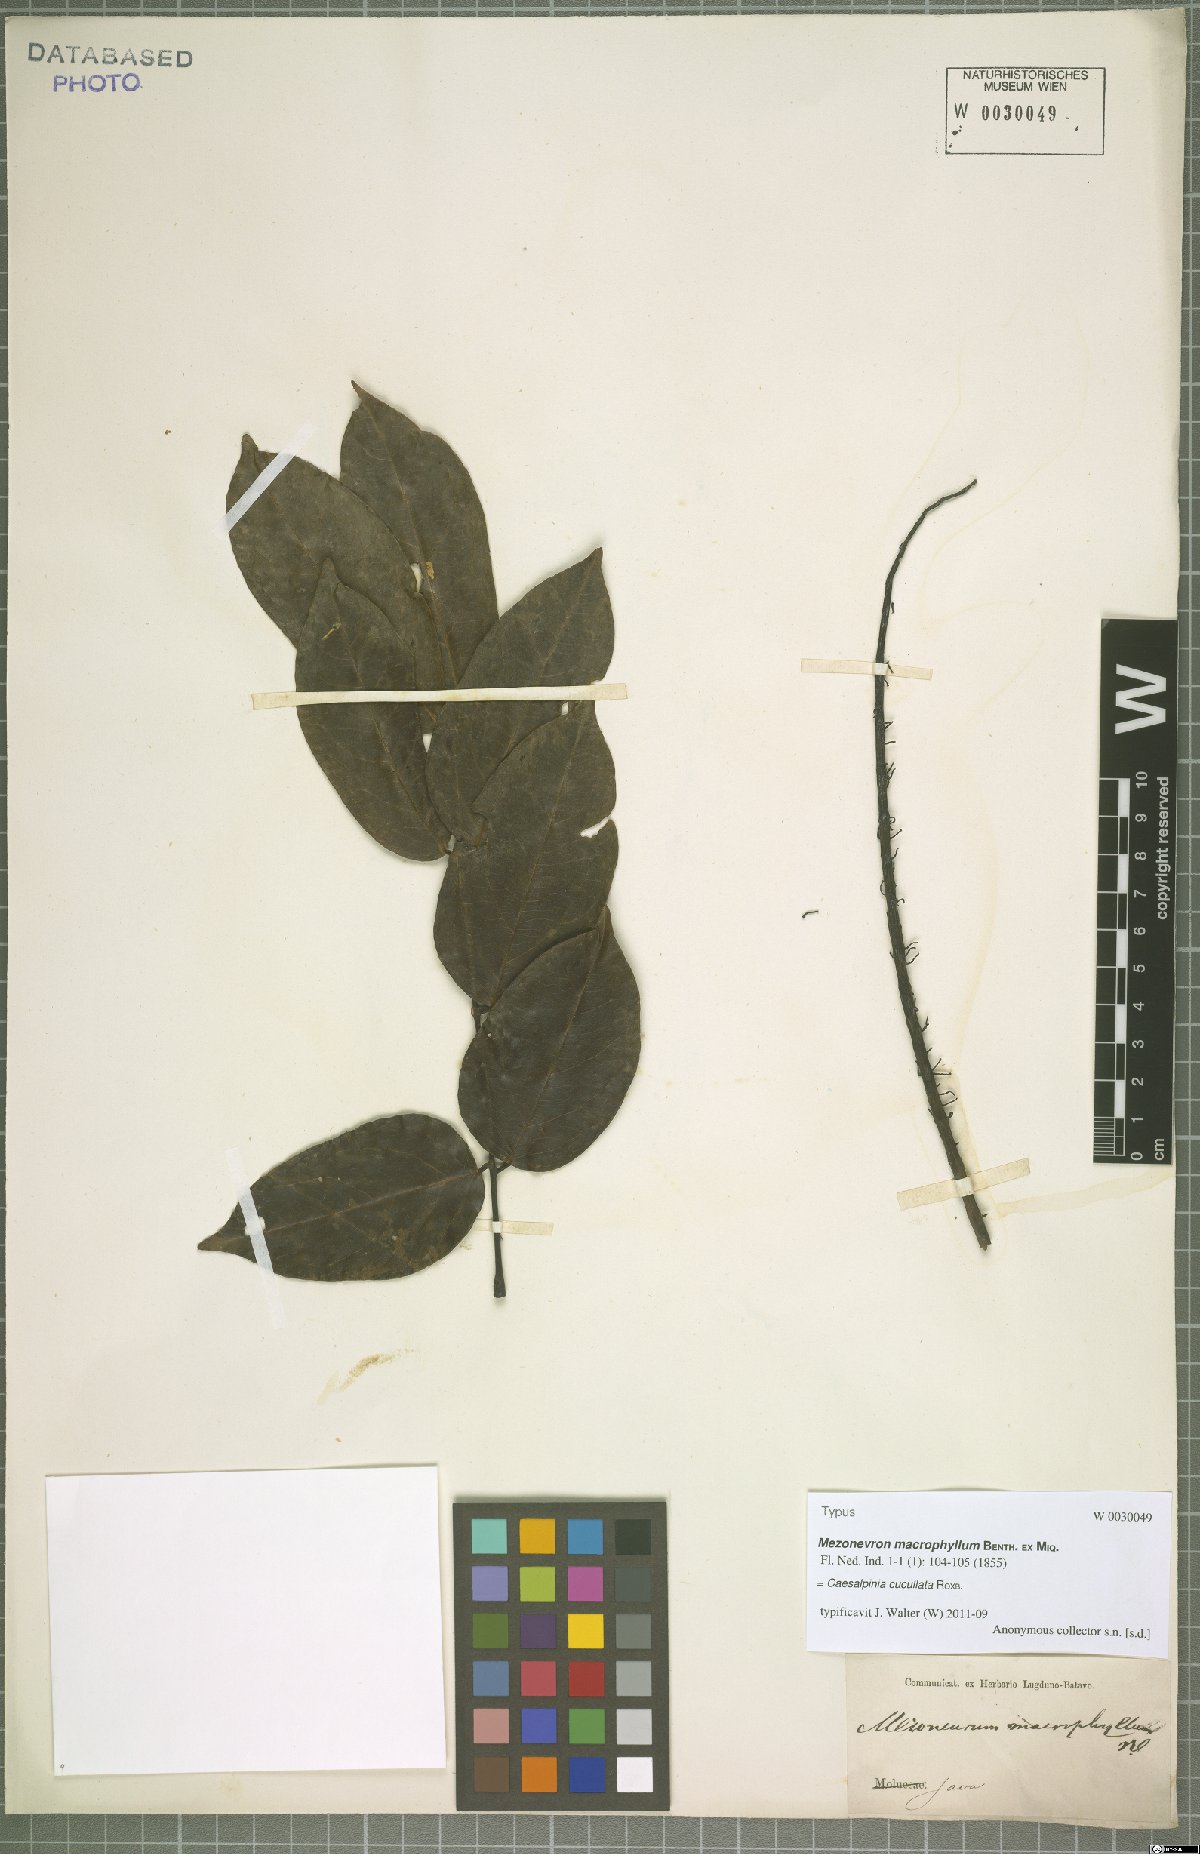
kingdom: Plantae
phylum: Tracheophyta
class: Magnoliopsida
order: Fabales
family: Fabaceae
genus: Mezoneuron
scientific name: Mezoneuron cucullatum
